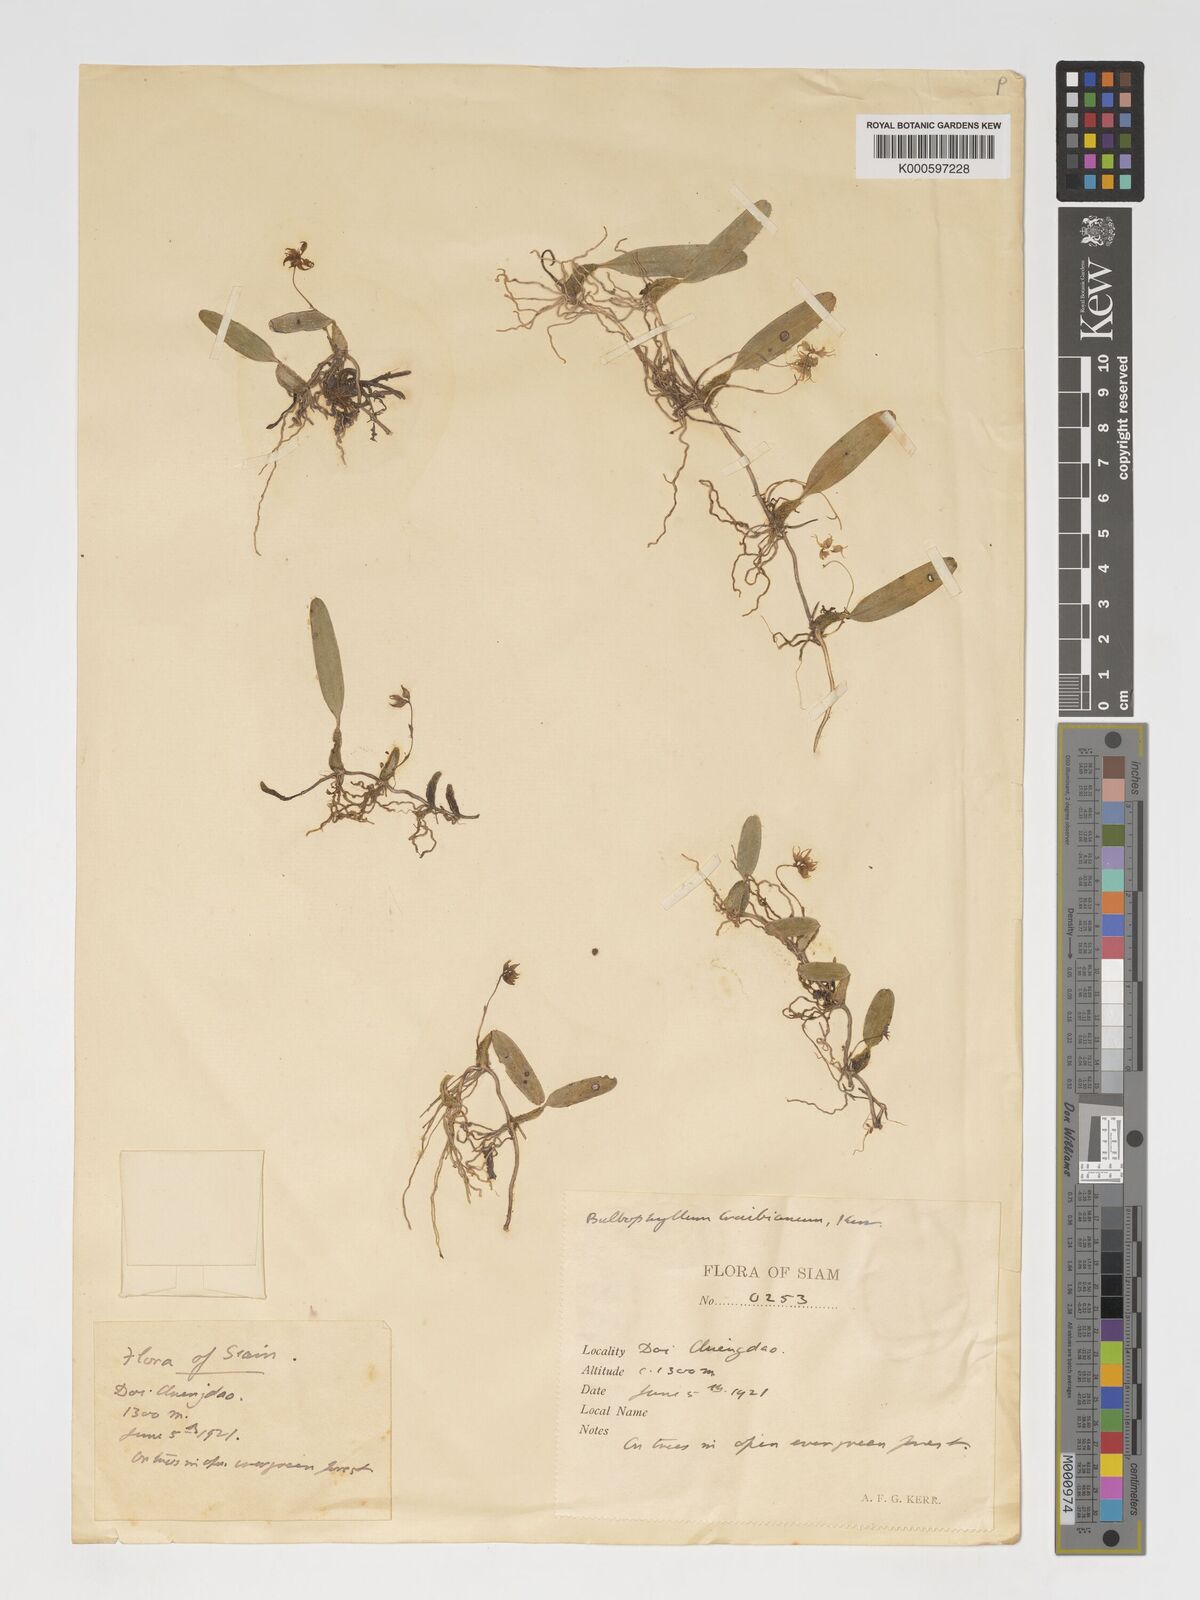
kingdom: Plantae
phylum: Tracheophyta
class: Liliopsida
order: Asparagales
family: Orchidaceae
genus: Bulbophyllum
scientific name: Bulbophyllum shweliense
